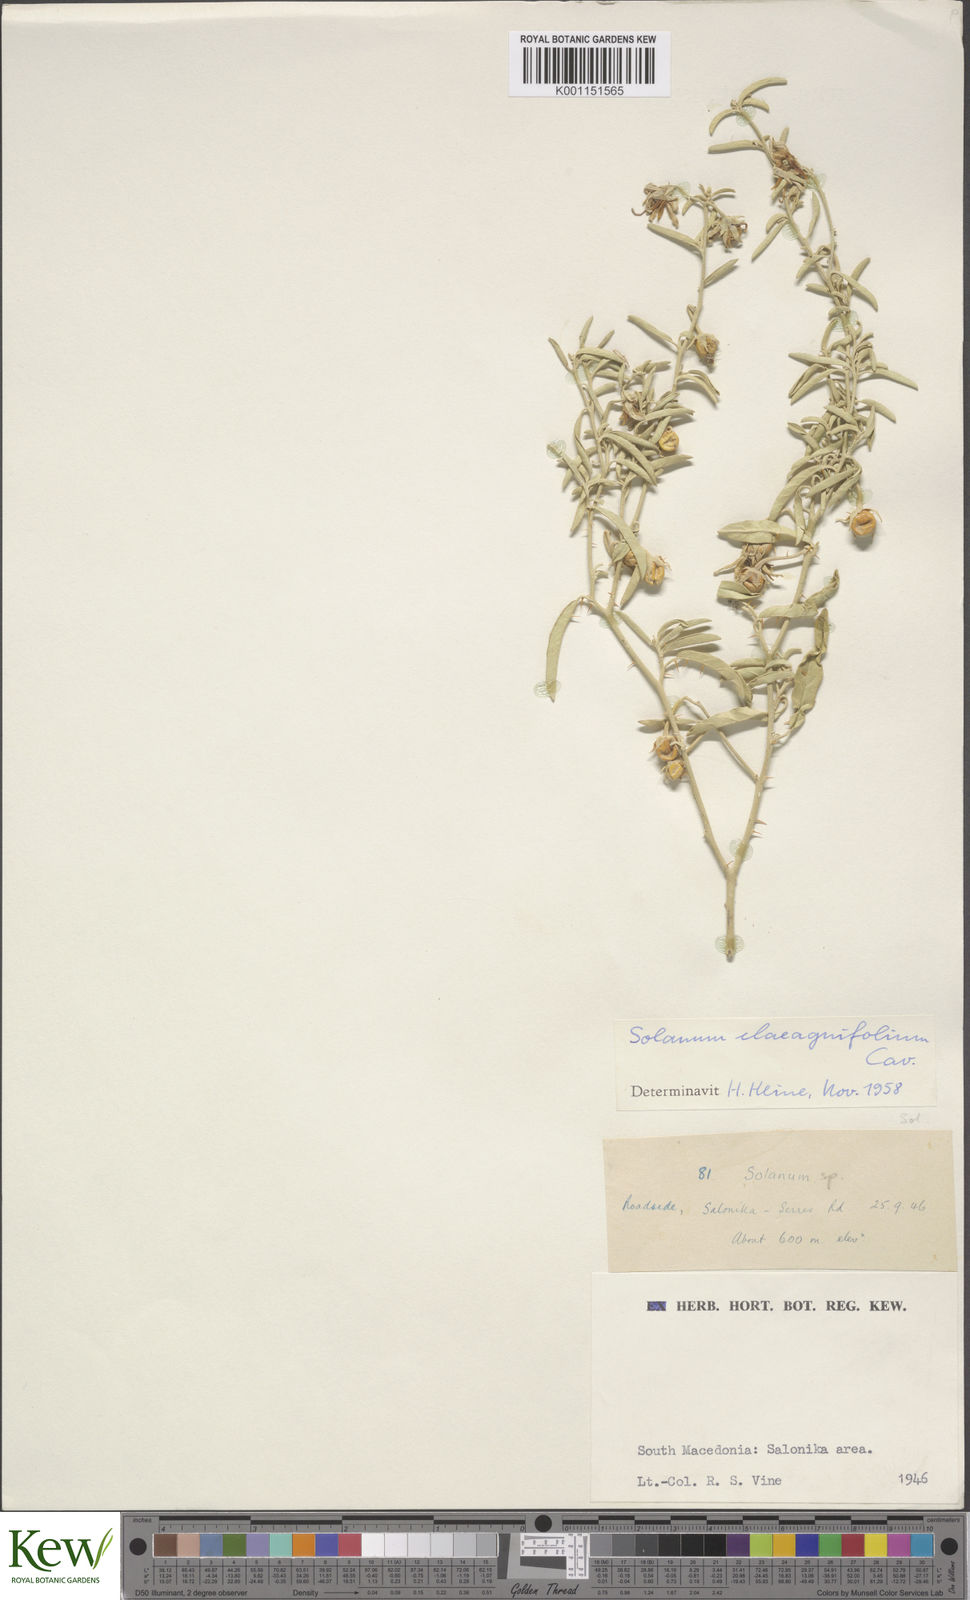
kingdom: Plantae
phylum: Tracheophyta
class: Magnoliopsida
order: Solanales
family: Solanaceae
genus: Solanum
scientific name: Solanum elaeagnifolium
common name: Silverleaf nightshade
